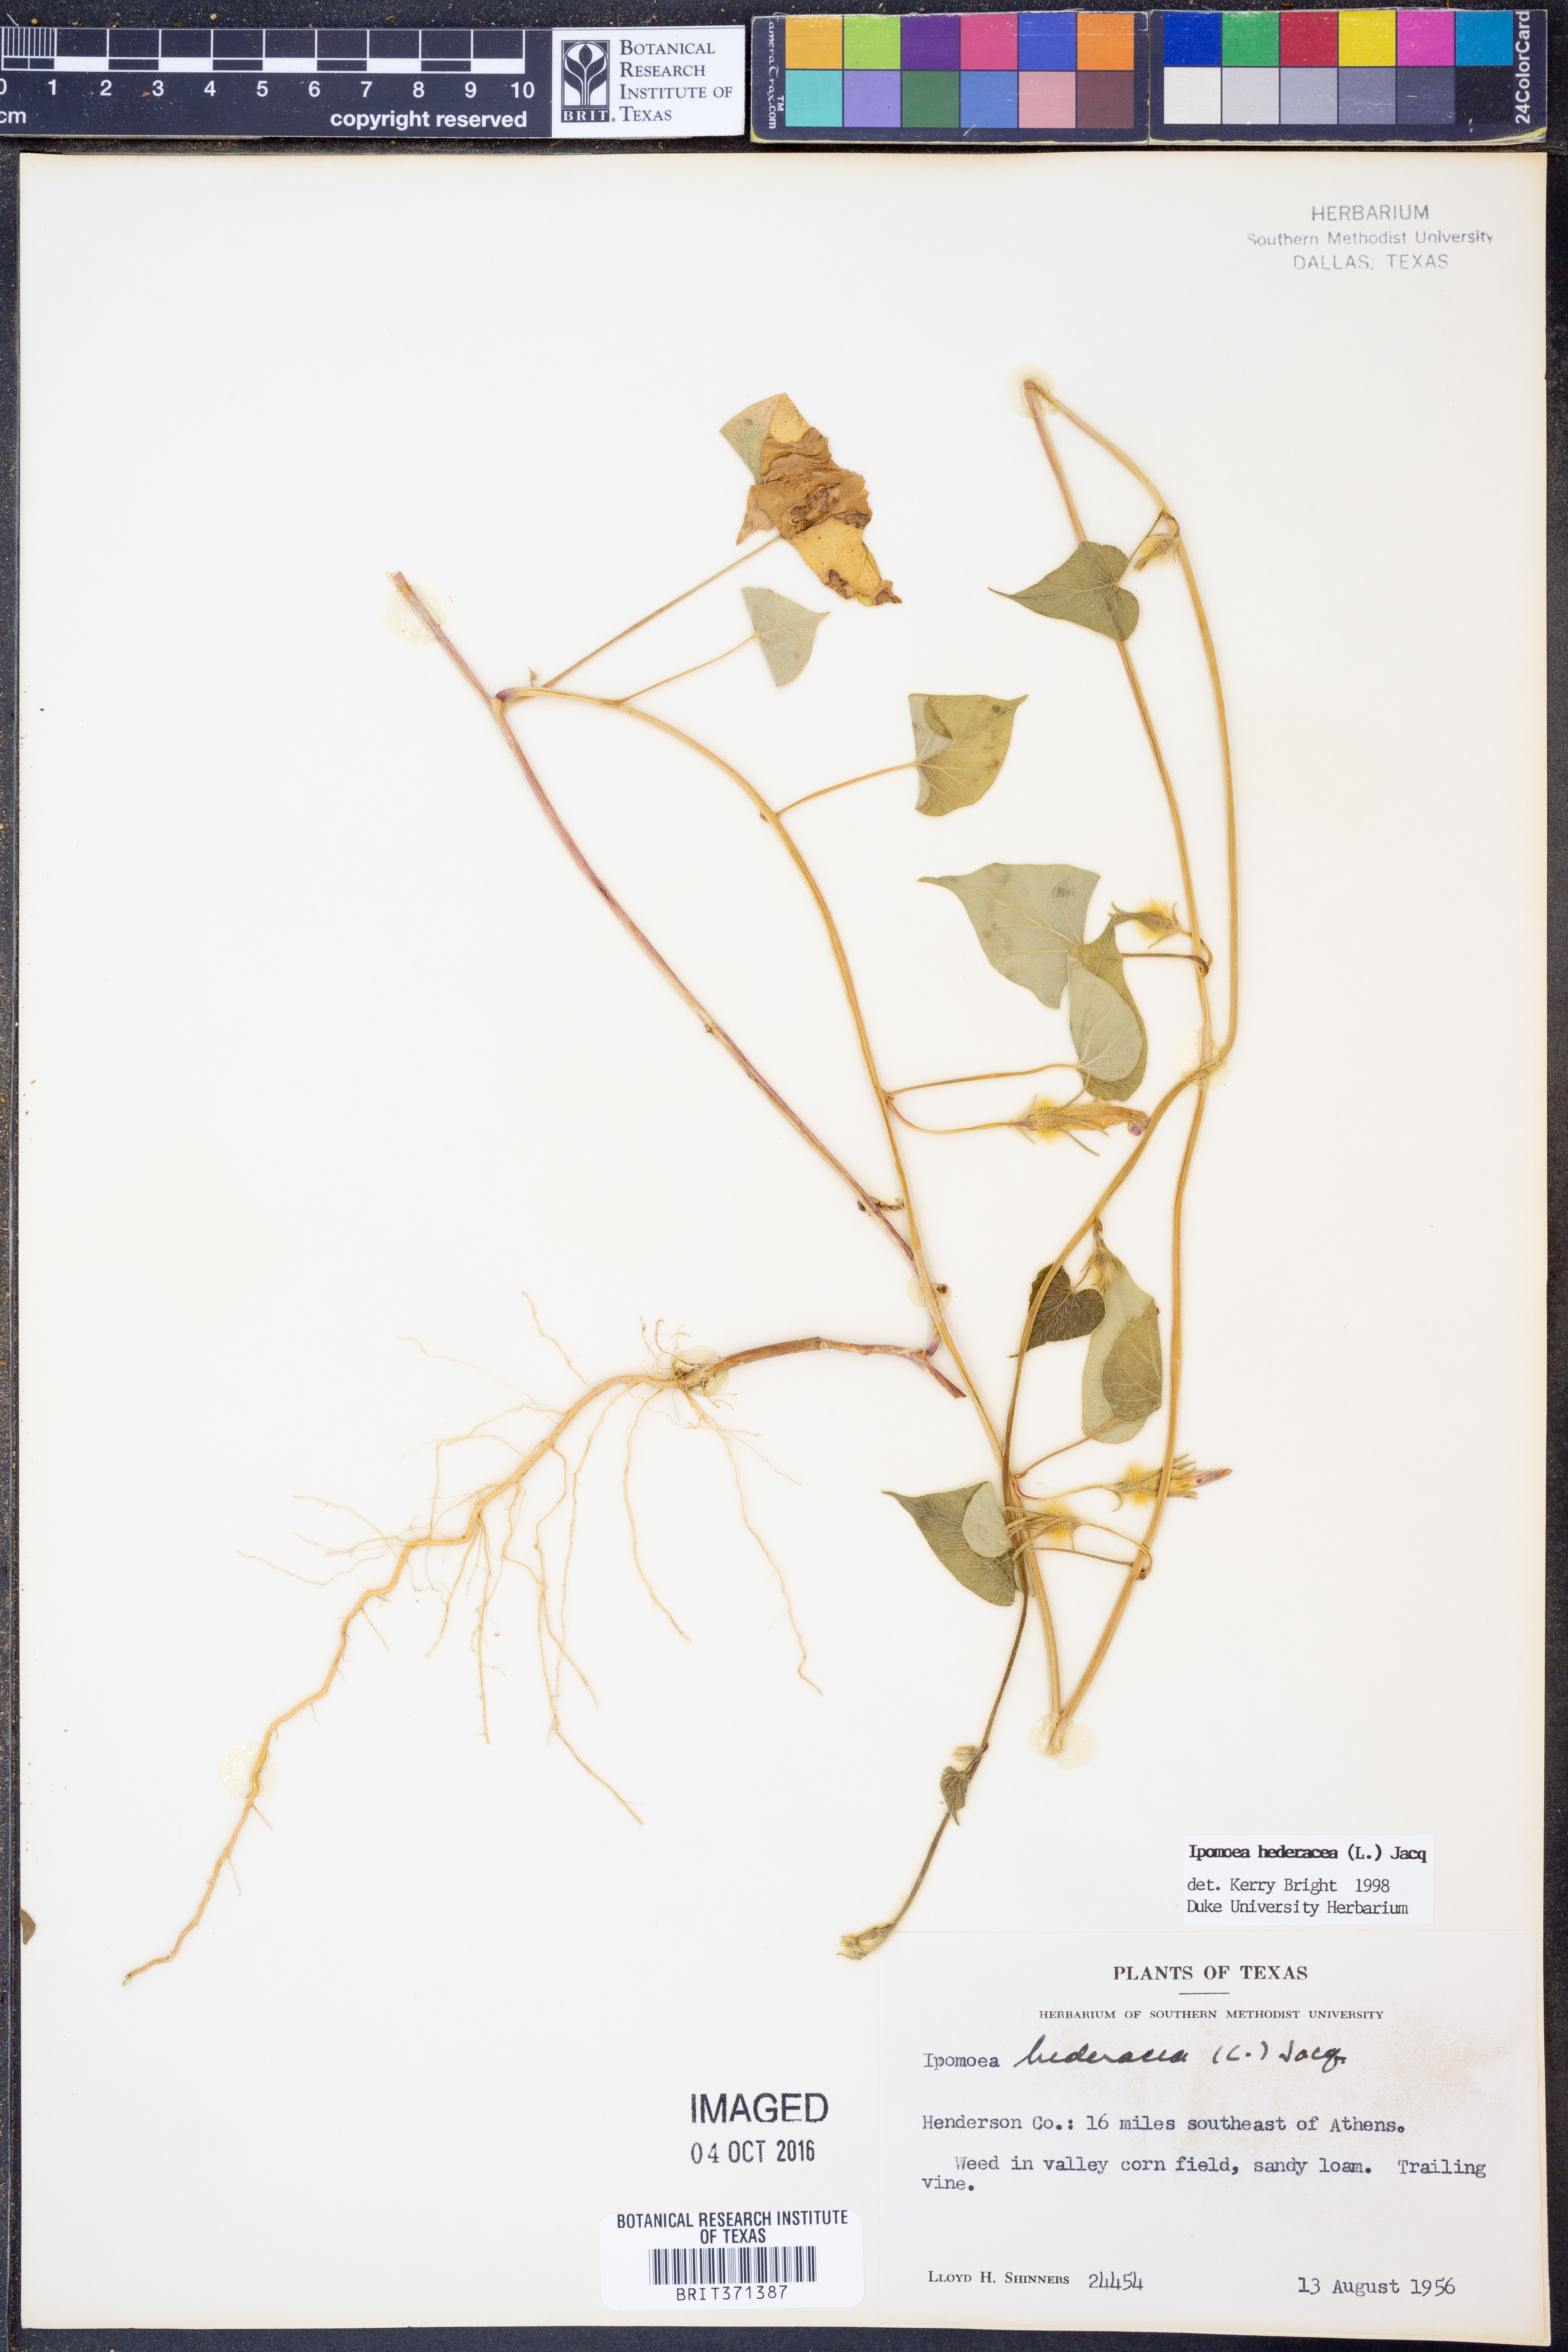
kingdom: Plantae
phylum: Tracheophyta
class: Magnoliopsida
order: Solanales
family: Convolvulaceae
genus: Ipomoea
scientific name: Ipomoea hederacea
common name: Ivy-leaved morning-glory
